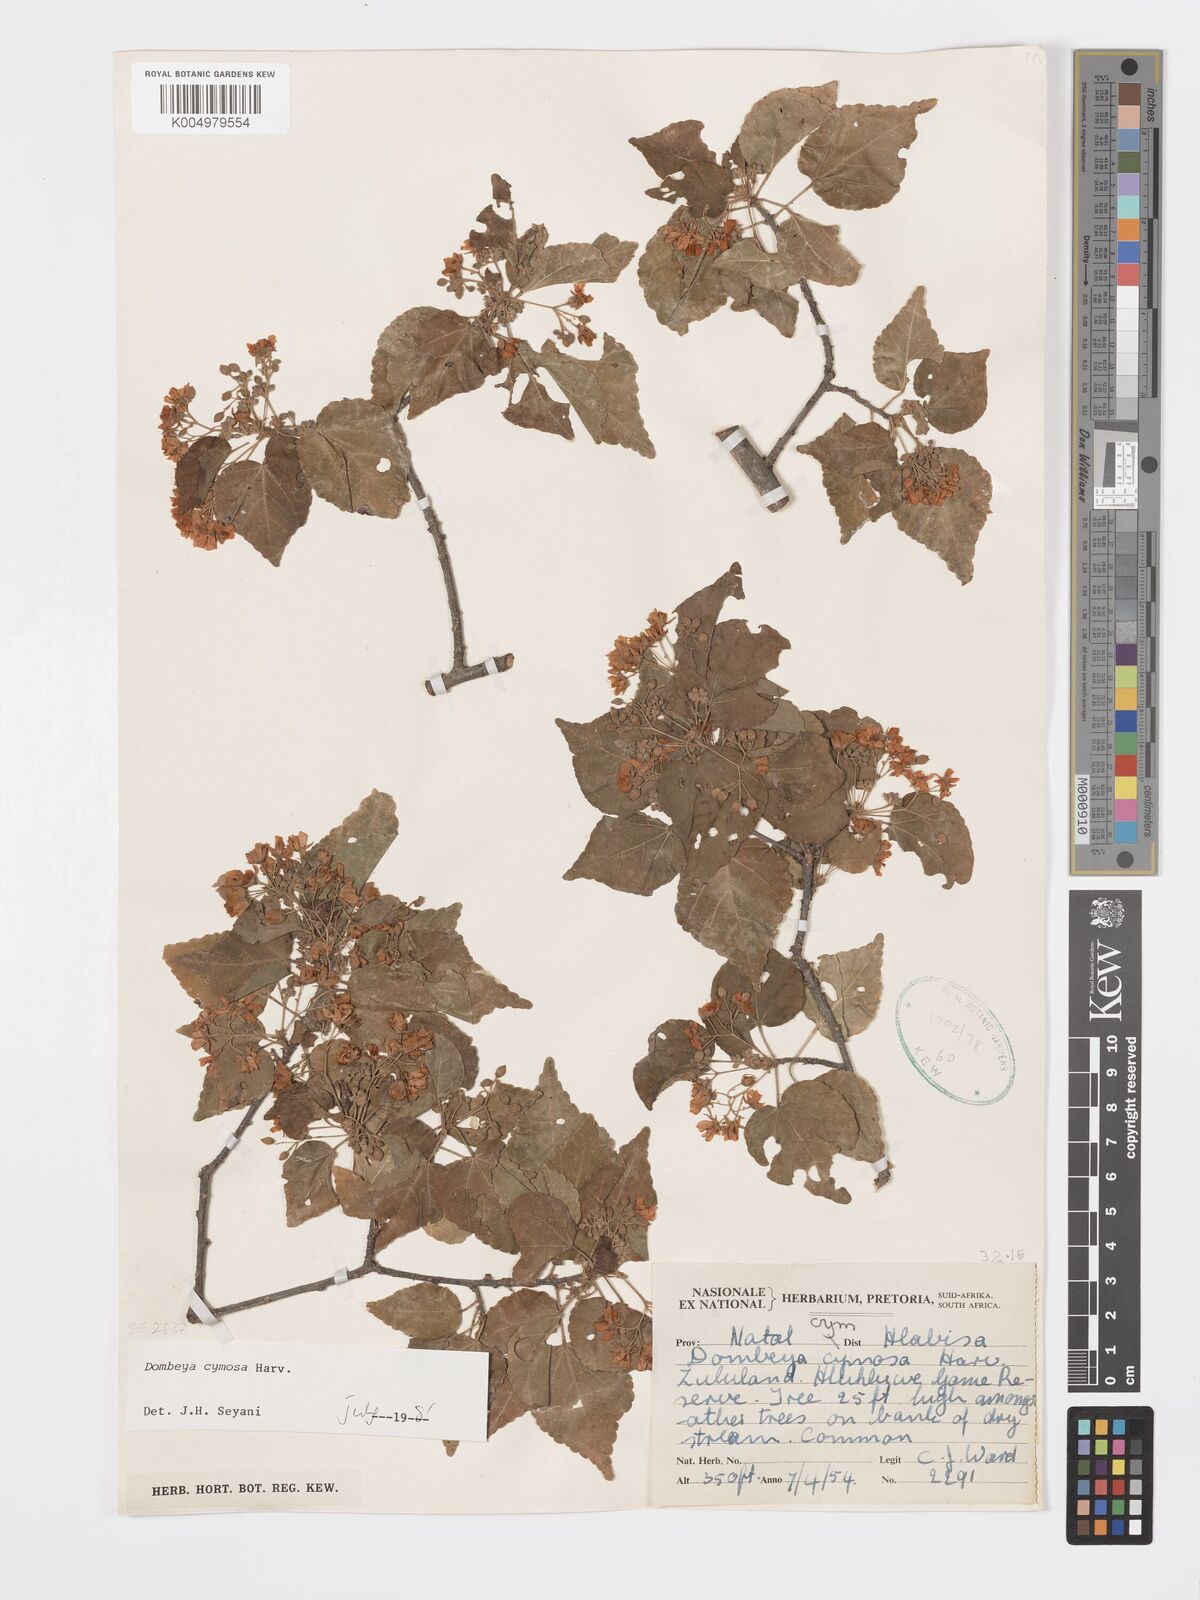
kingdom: Plantae
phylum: Tracheophyta
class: Magnoliopsida
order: Malvales
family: Malvaceae
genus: Dombeya
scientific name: Dombeya cymosa
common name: Hairless dombeya
